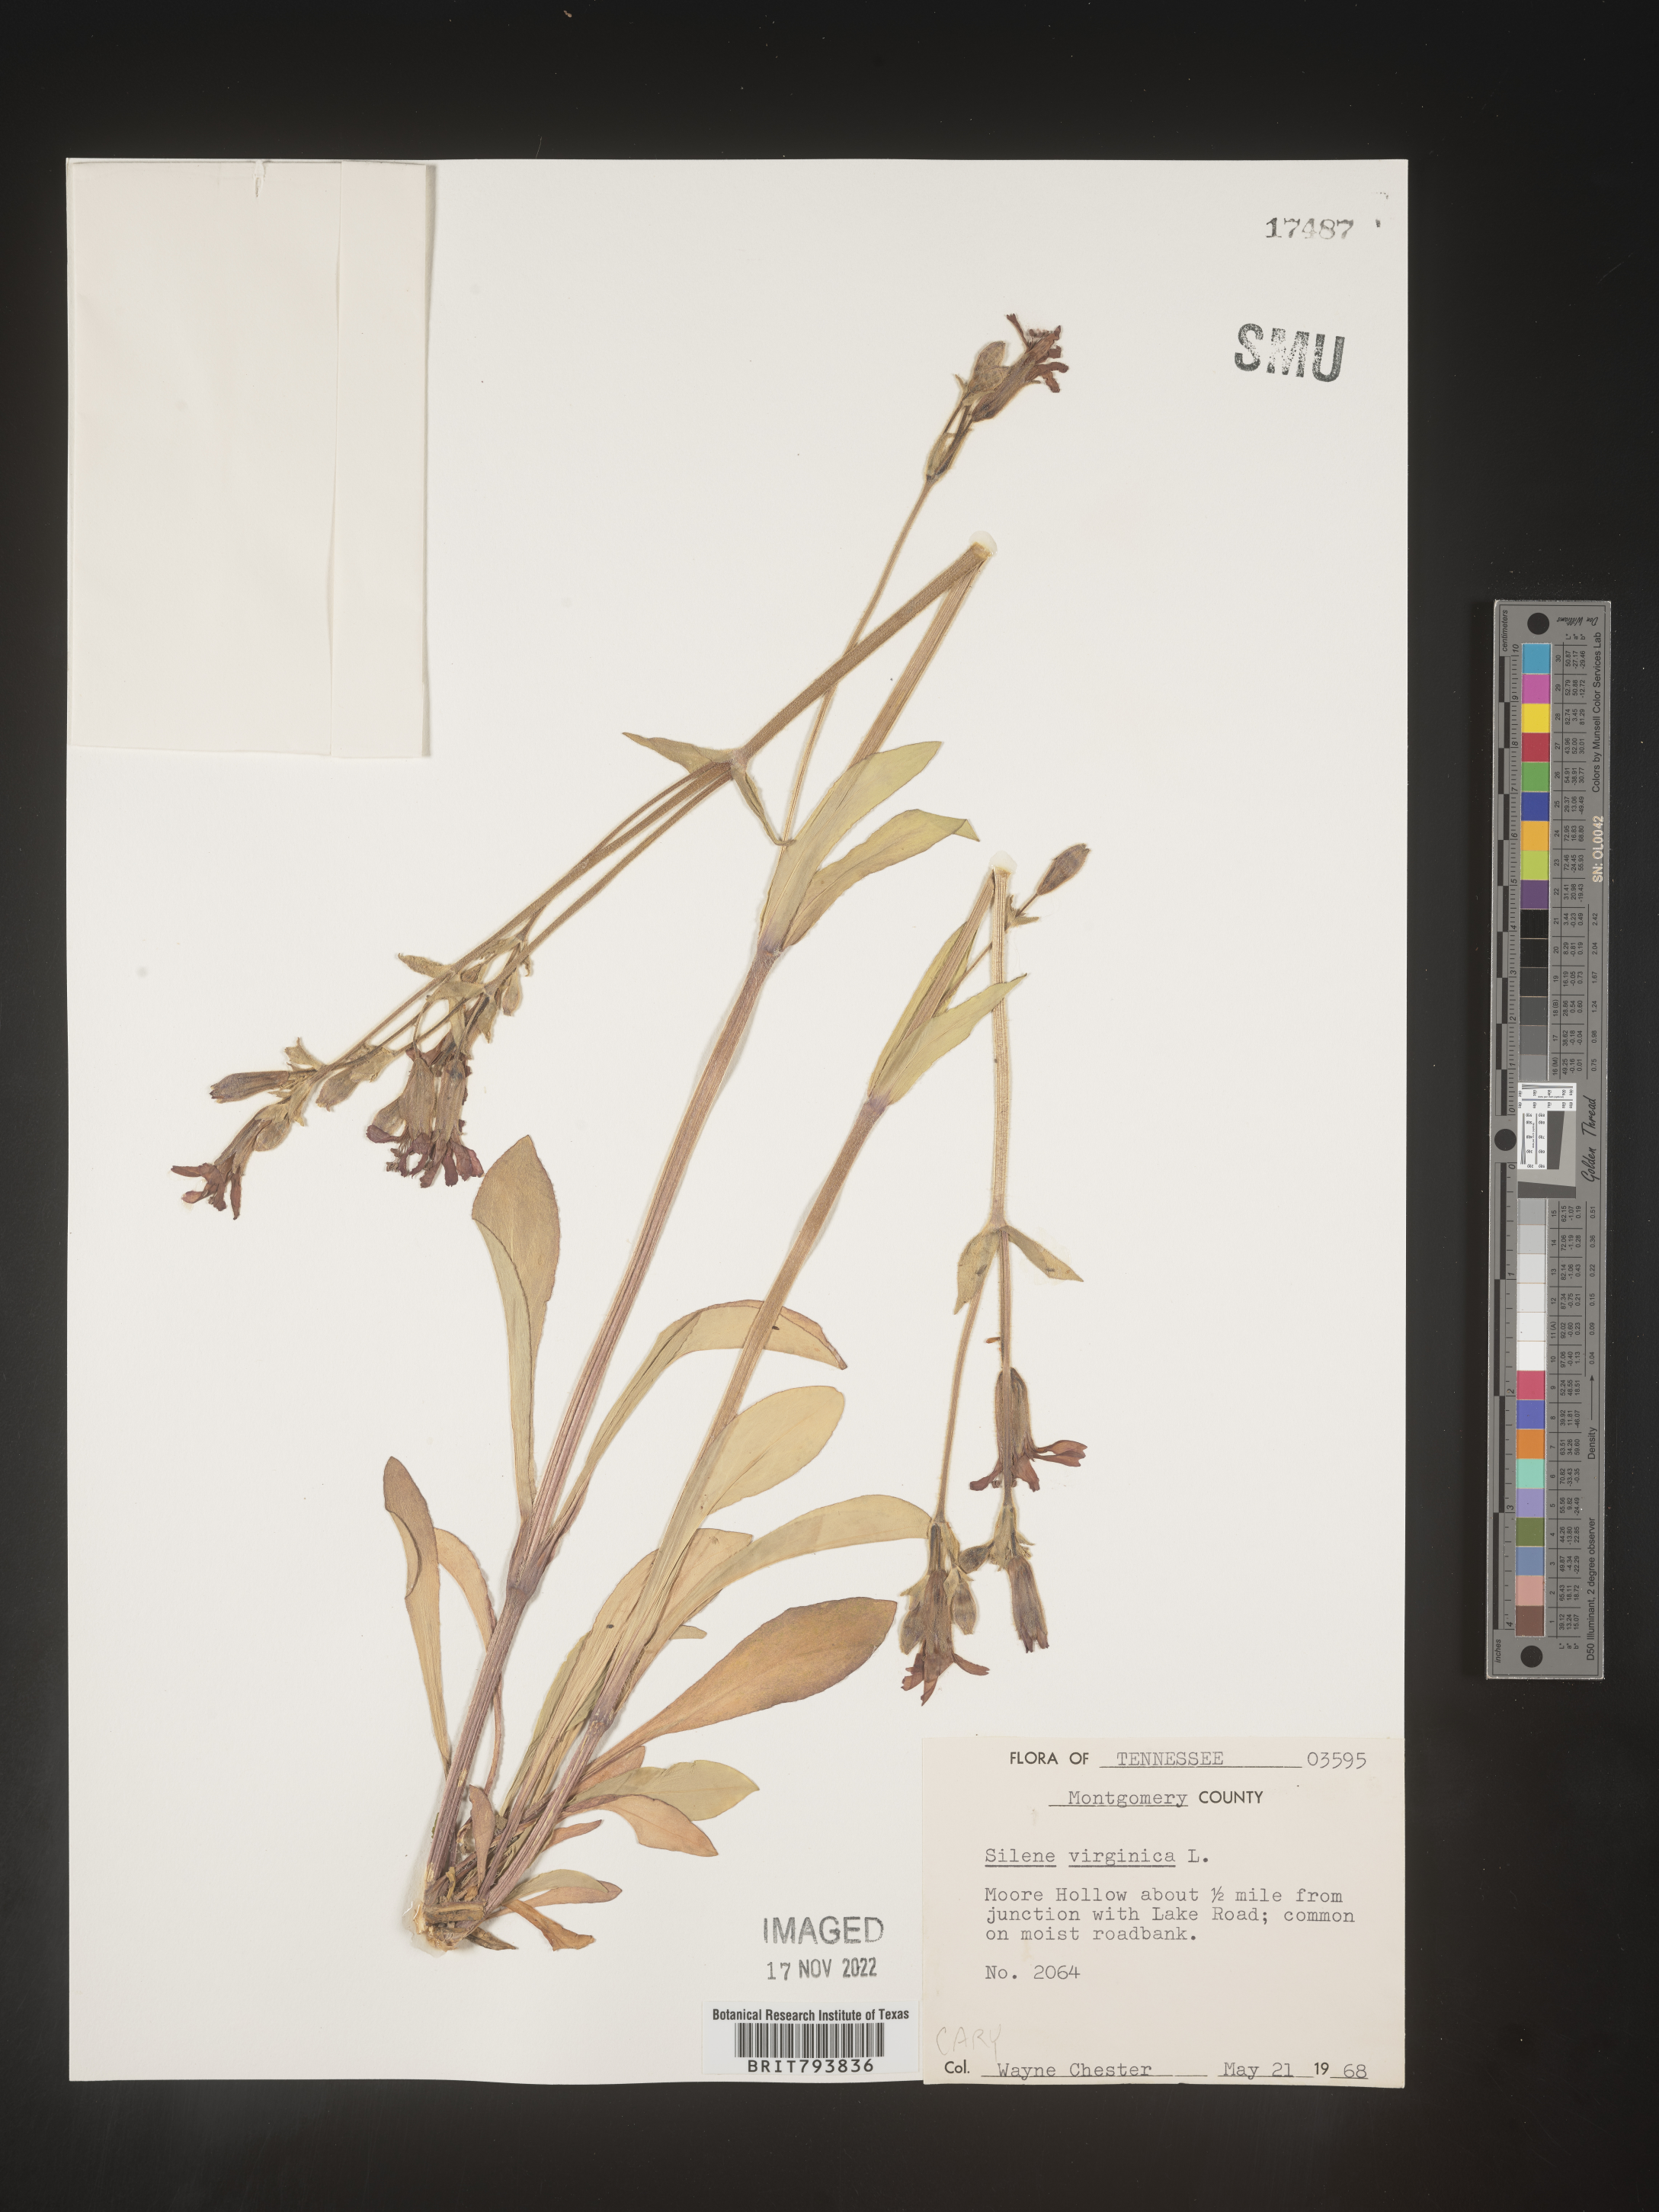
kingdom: Plantae
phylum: Tracheophyta
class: Magnoliopsida
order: Caryophyllales
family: Caryophyllaceae
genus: Silene
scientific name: Silene virginica
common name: Fire-pink
